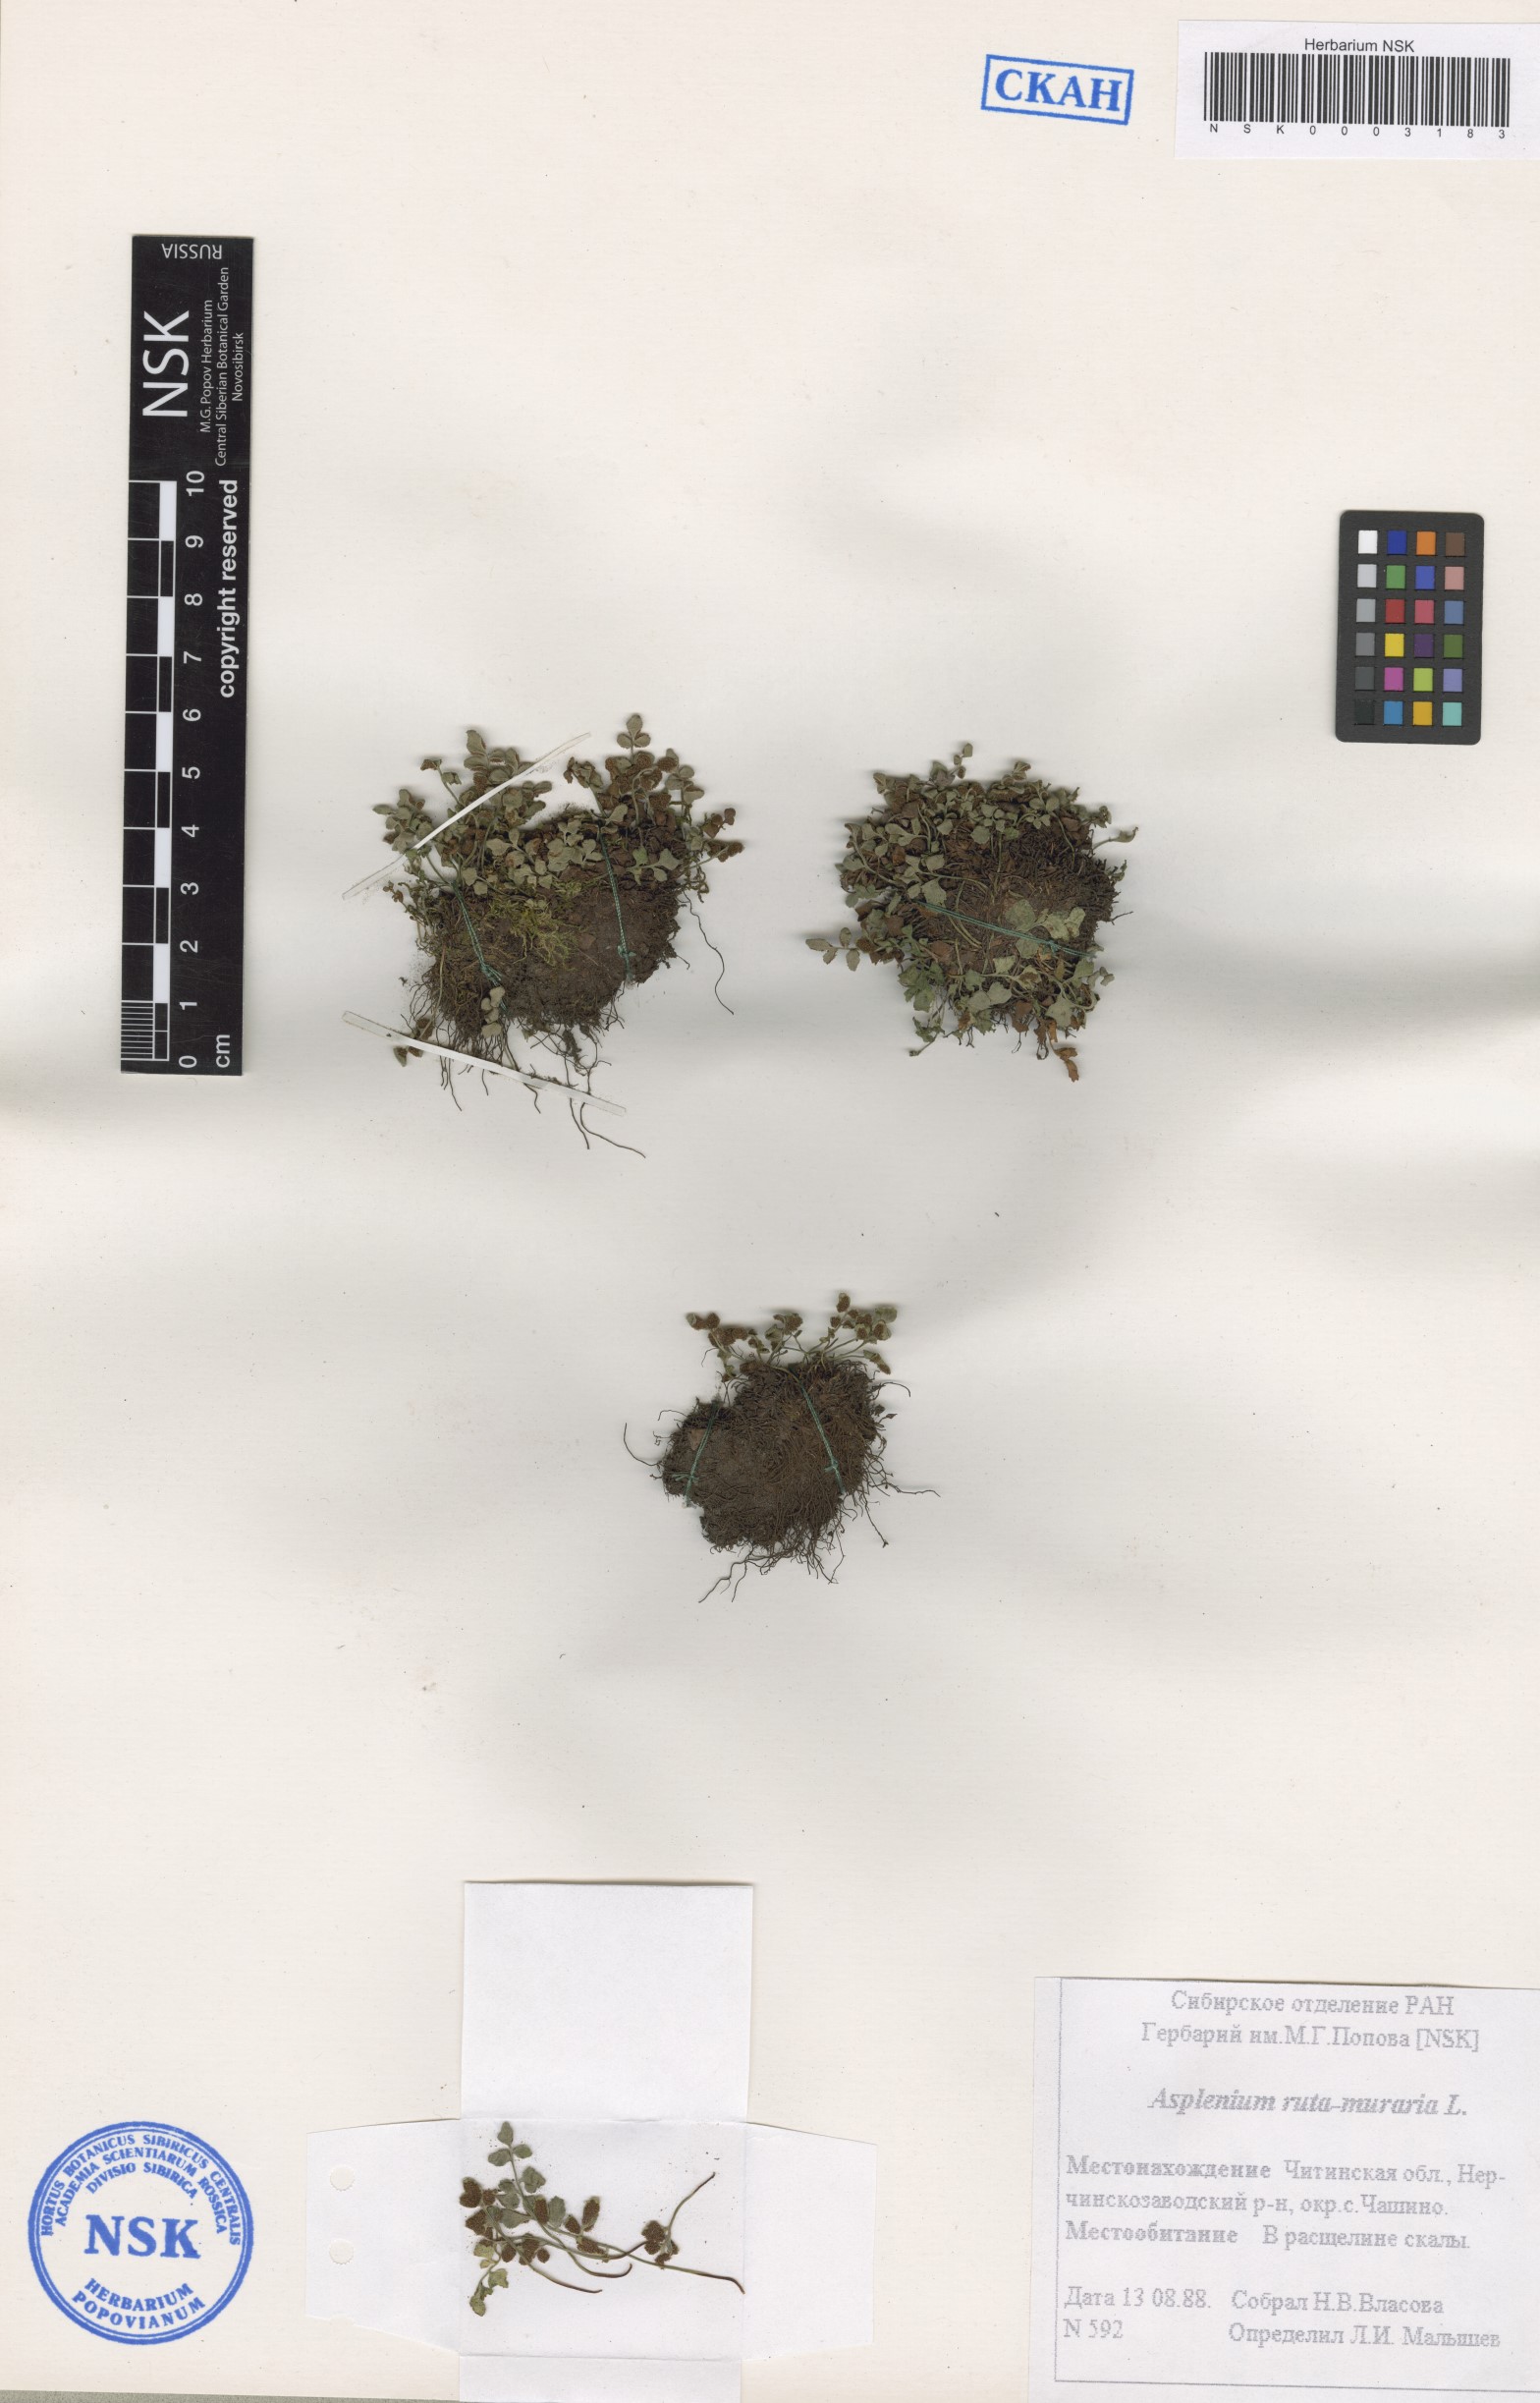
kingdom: Plantae
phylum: Tracheophyta
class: Polypodiopsida
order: Polypodiales
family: Aspleniaceae
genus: Asplenium
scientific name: Asplenium ruta-muraria
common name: Wall-rue
